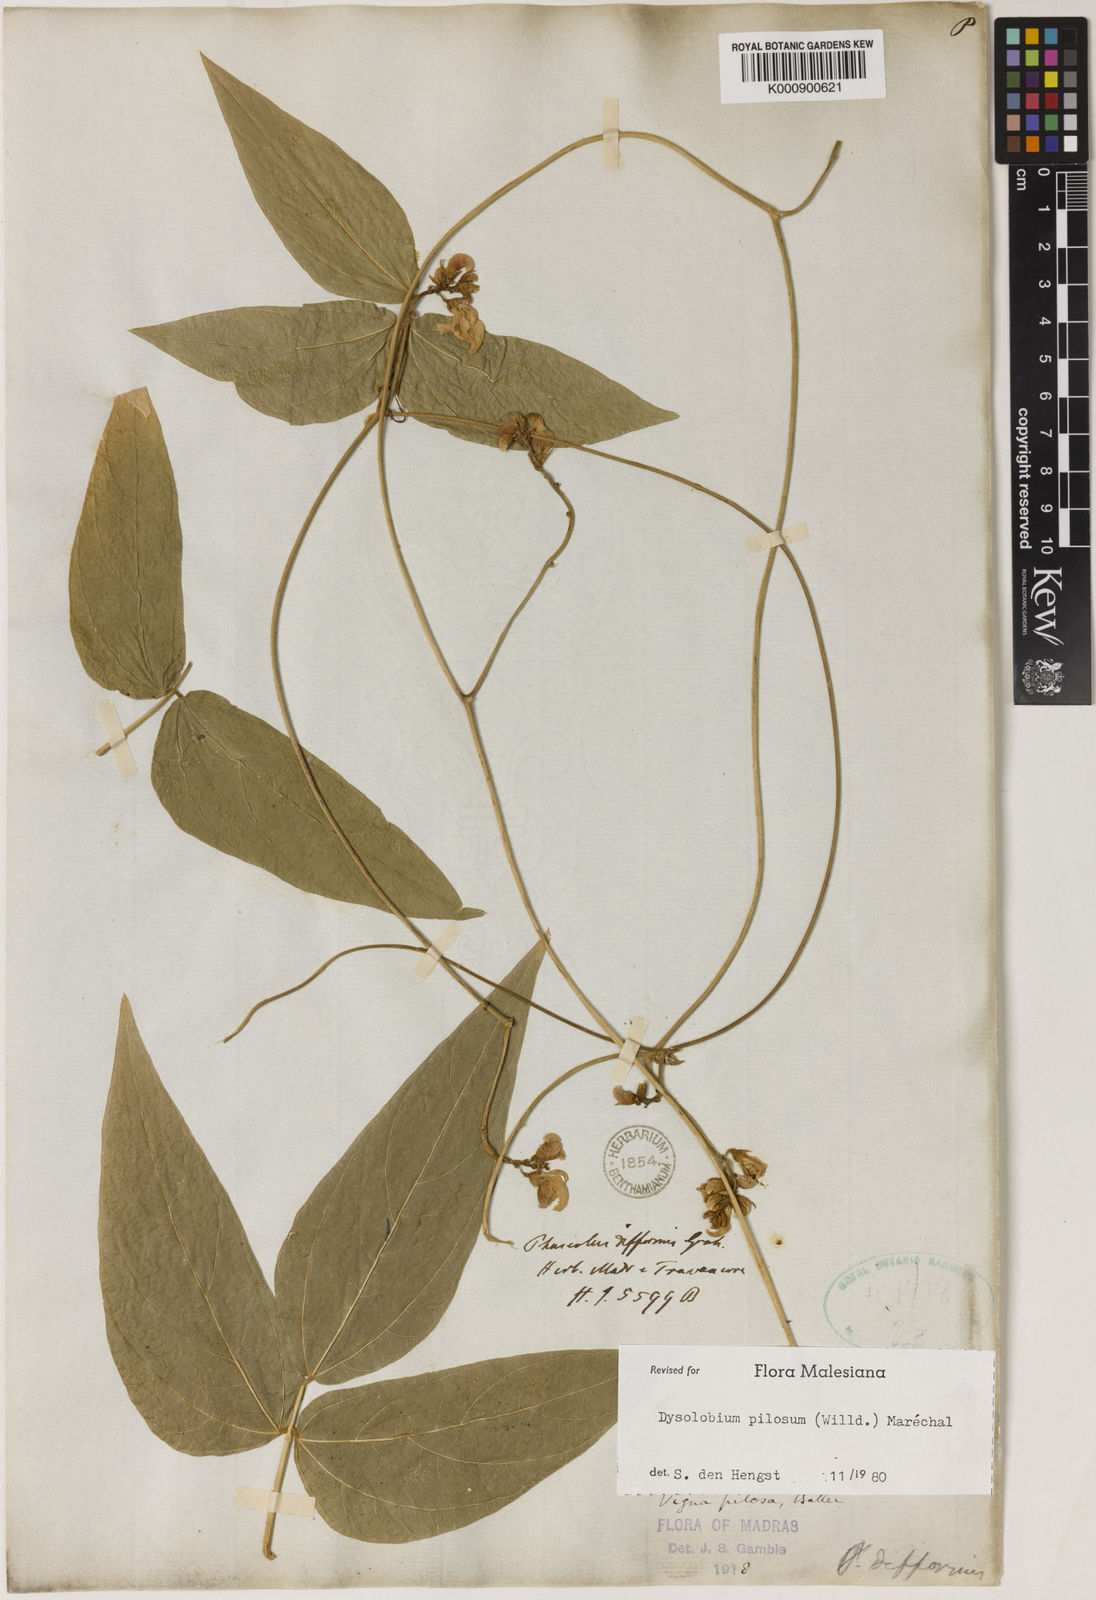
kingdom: Plantae
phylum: Tracheophyta
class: Magnoliopsida
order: Fabales
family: Fabaceae
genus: Dysolobium
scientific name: Dysolobium
